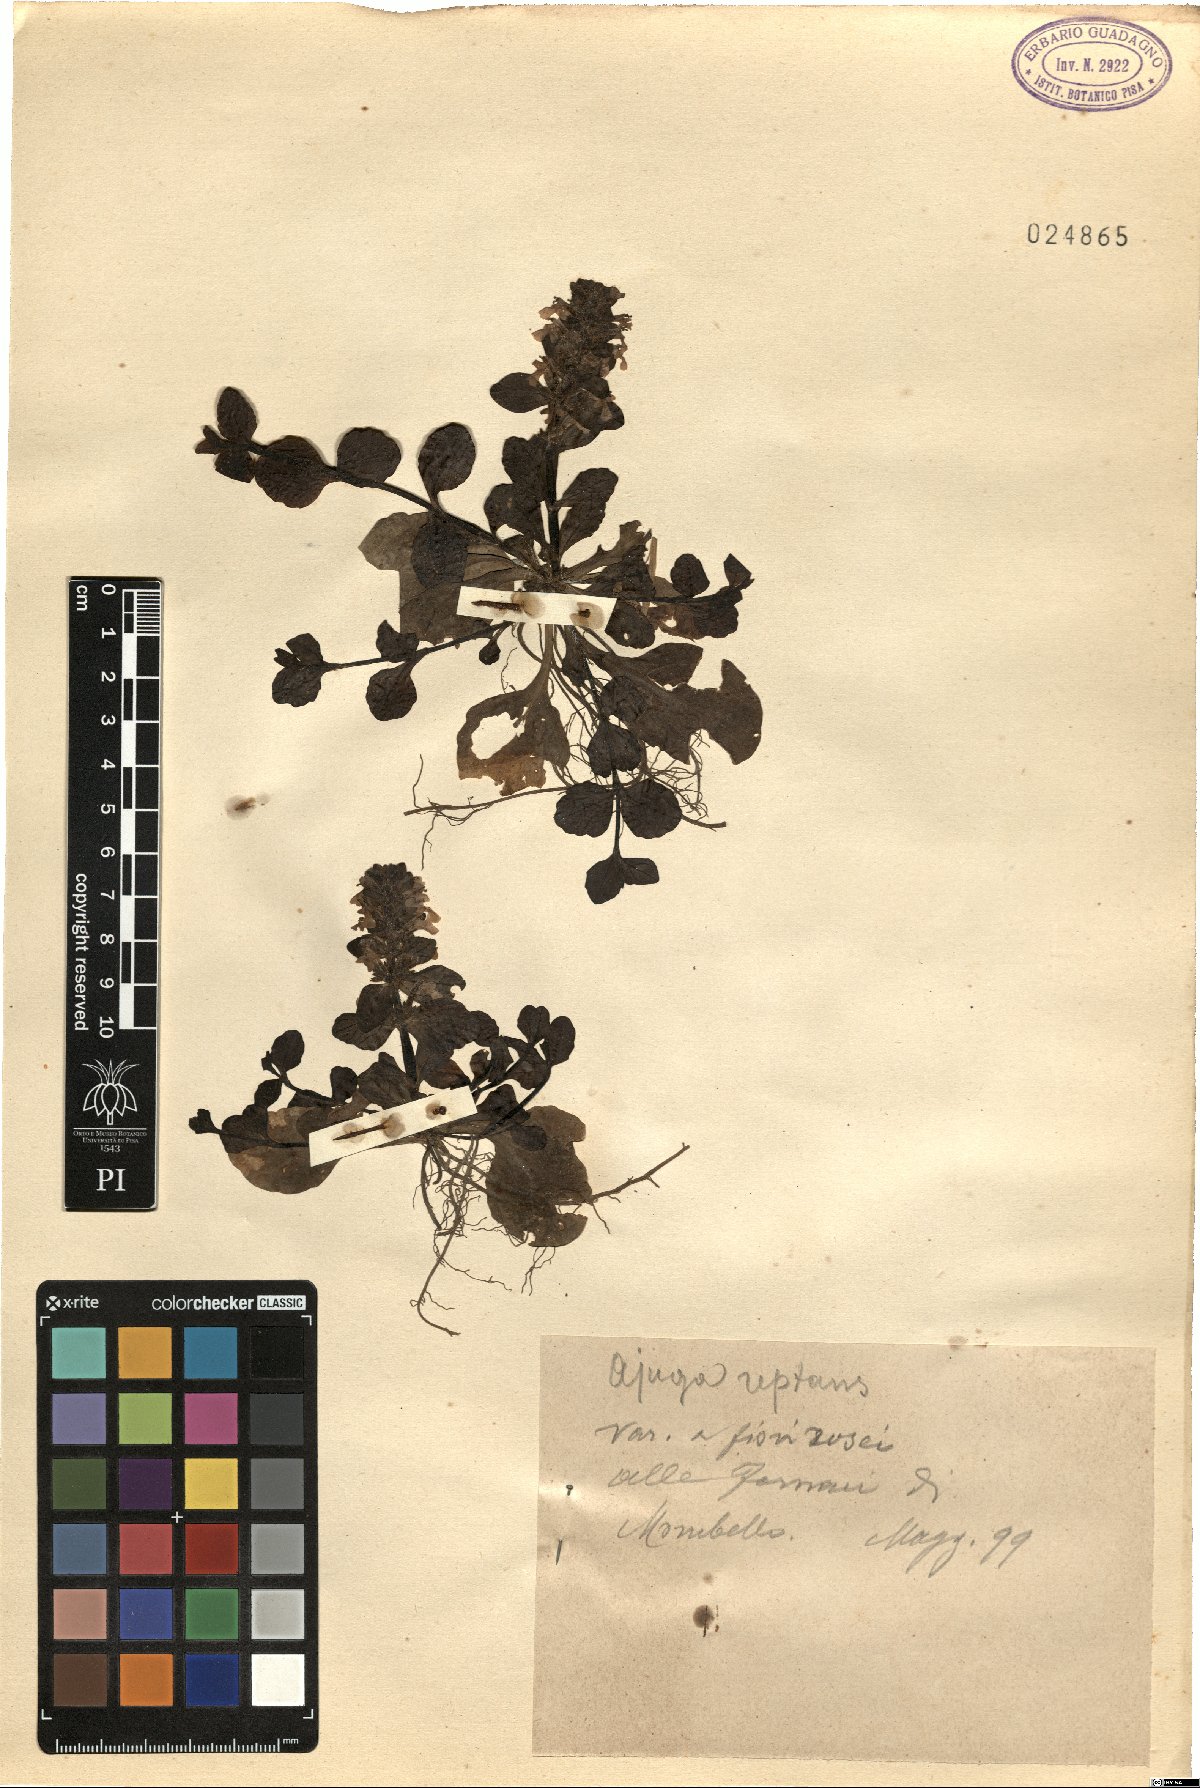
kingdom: Plantae
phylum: Tracheophyta
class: Magnoliopsida
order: Lamiales
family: Lamiaceae
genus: Ajuga
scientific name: Ajuga reptans
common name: Bugle
